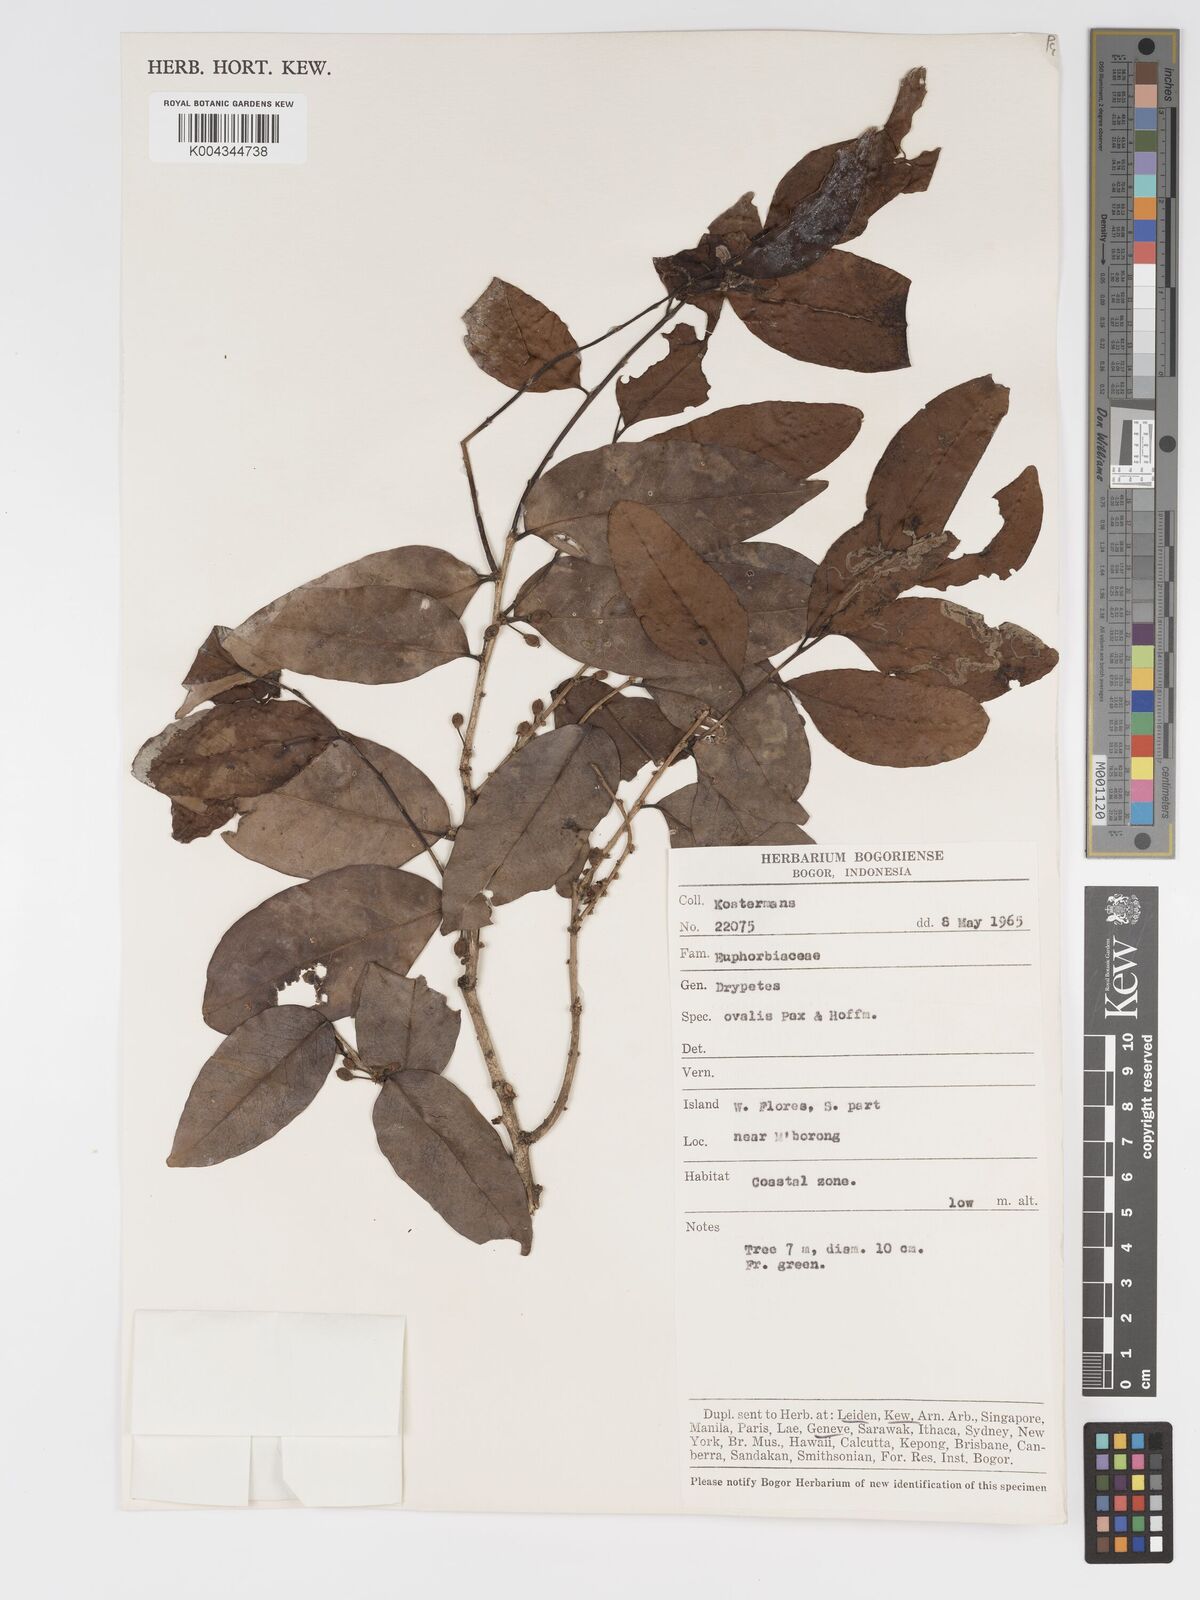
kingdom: Plantae
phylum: Tracheophyta
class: Magnoliopsida
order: Malpighiales
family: Putranjivaceae
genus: Drypetes
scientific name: Drypetes ovalis
